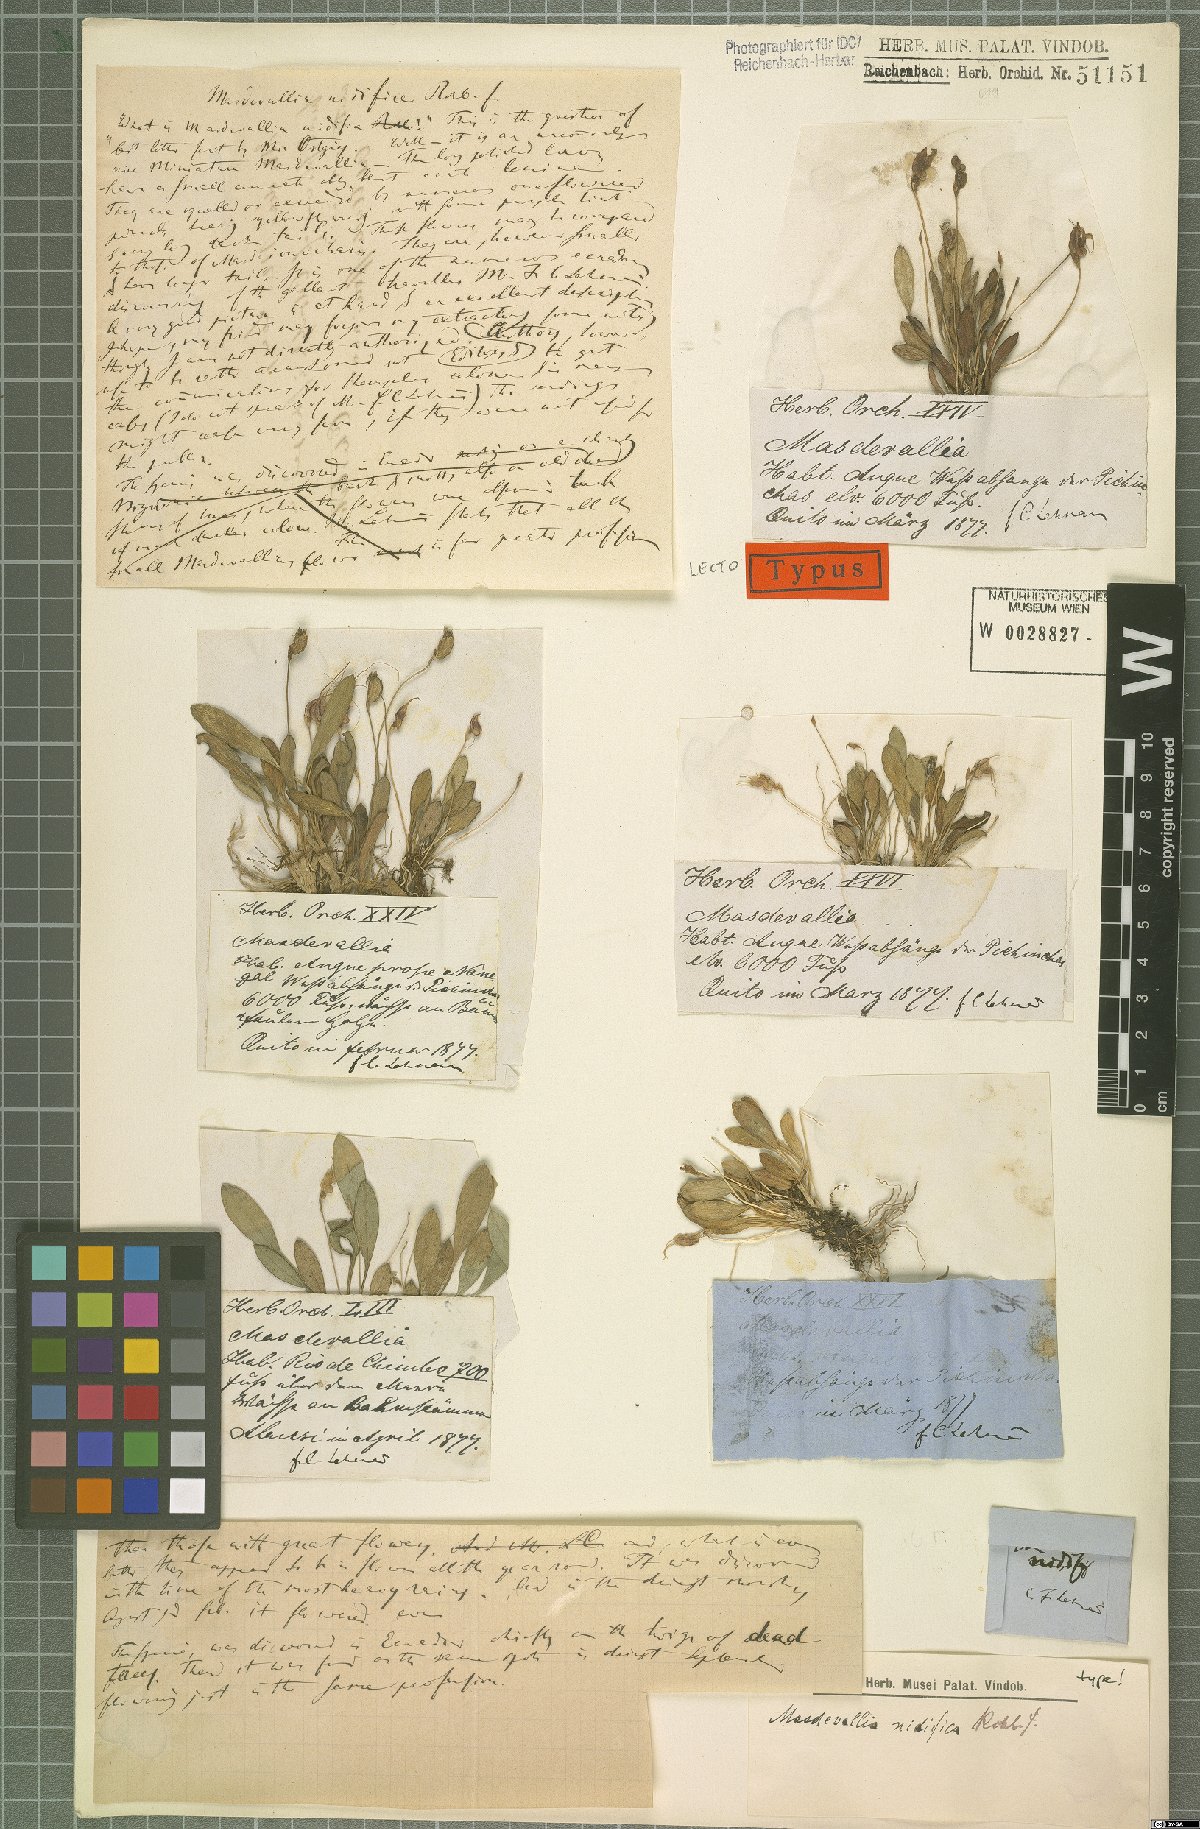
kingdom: Plantae
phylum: Tracheophyta
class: Liliopsida
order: Asparagales
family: Orchidaceae
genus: Masdevallia
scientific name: Masdevallia nidifica
